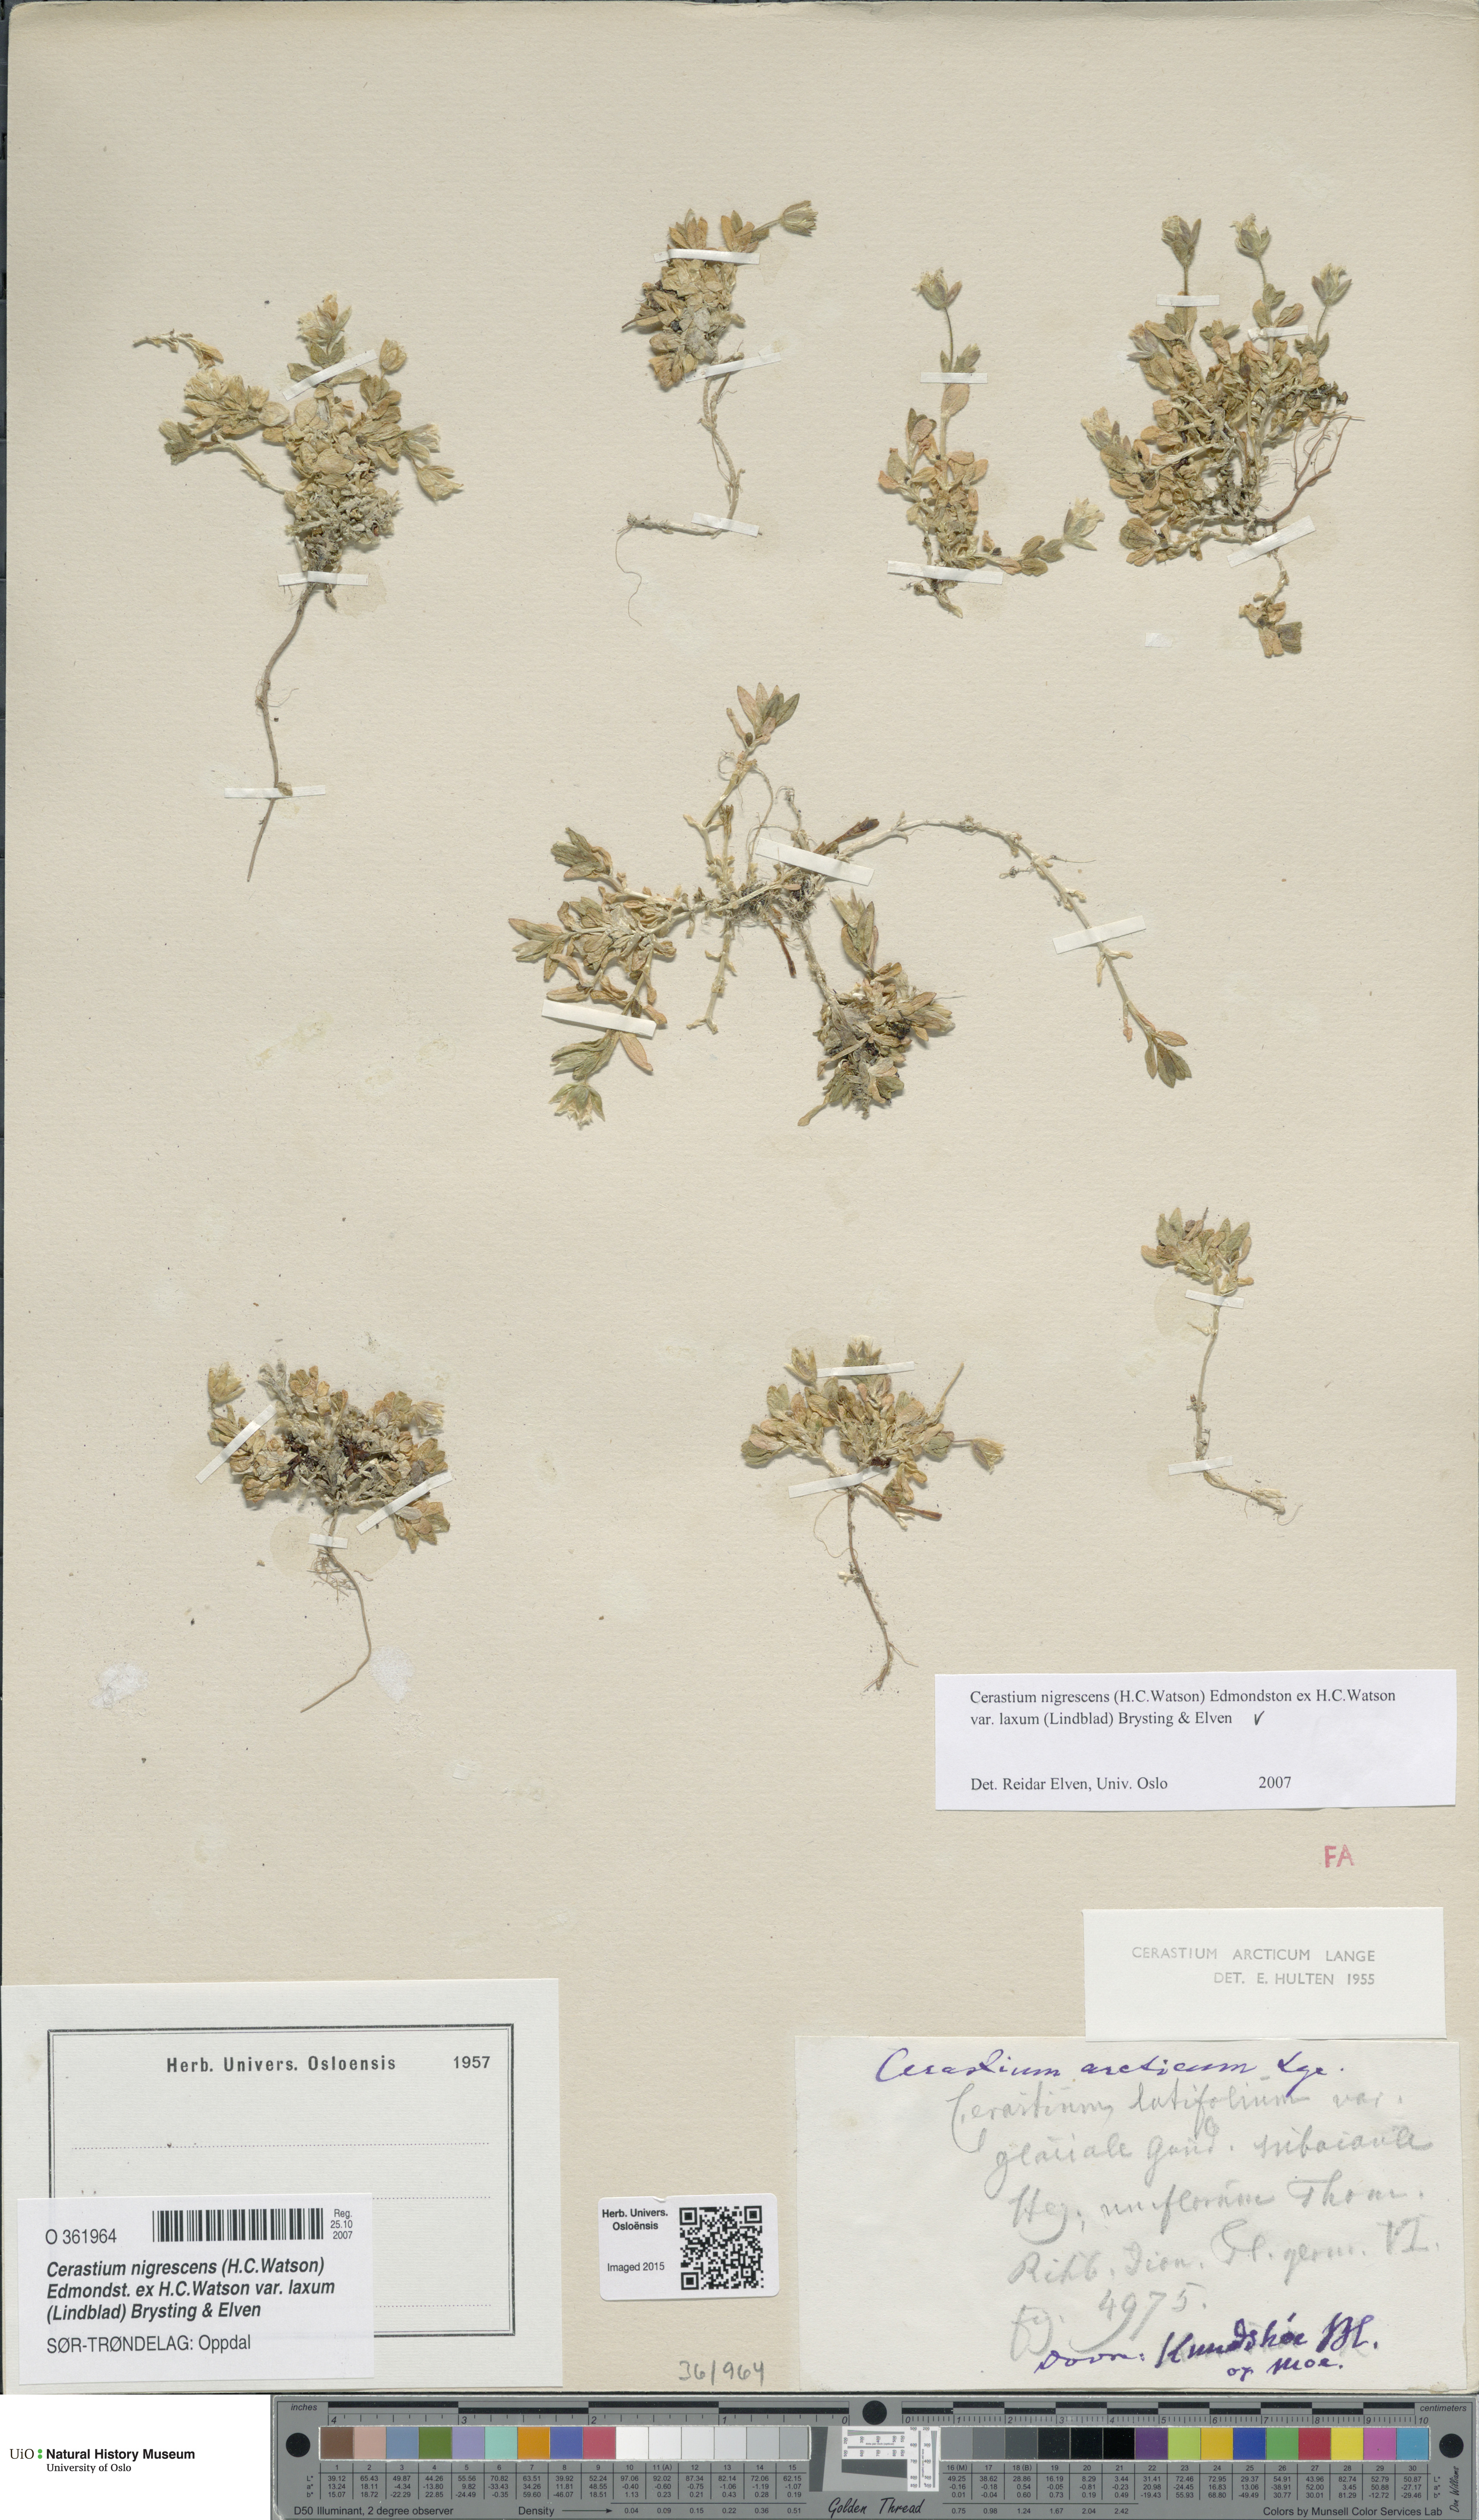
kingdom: Plantae
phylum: Tracheophyta
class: Magnoliopsida
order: Caryophyllales
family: Caryophyllaceae
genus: Cerastium
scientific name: Cerastium nigrescens
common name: Shetland mouse-ear
